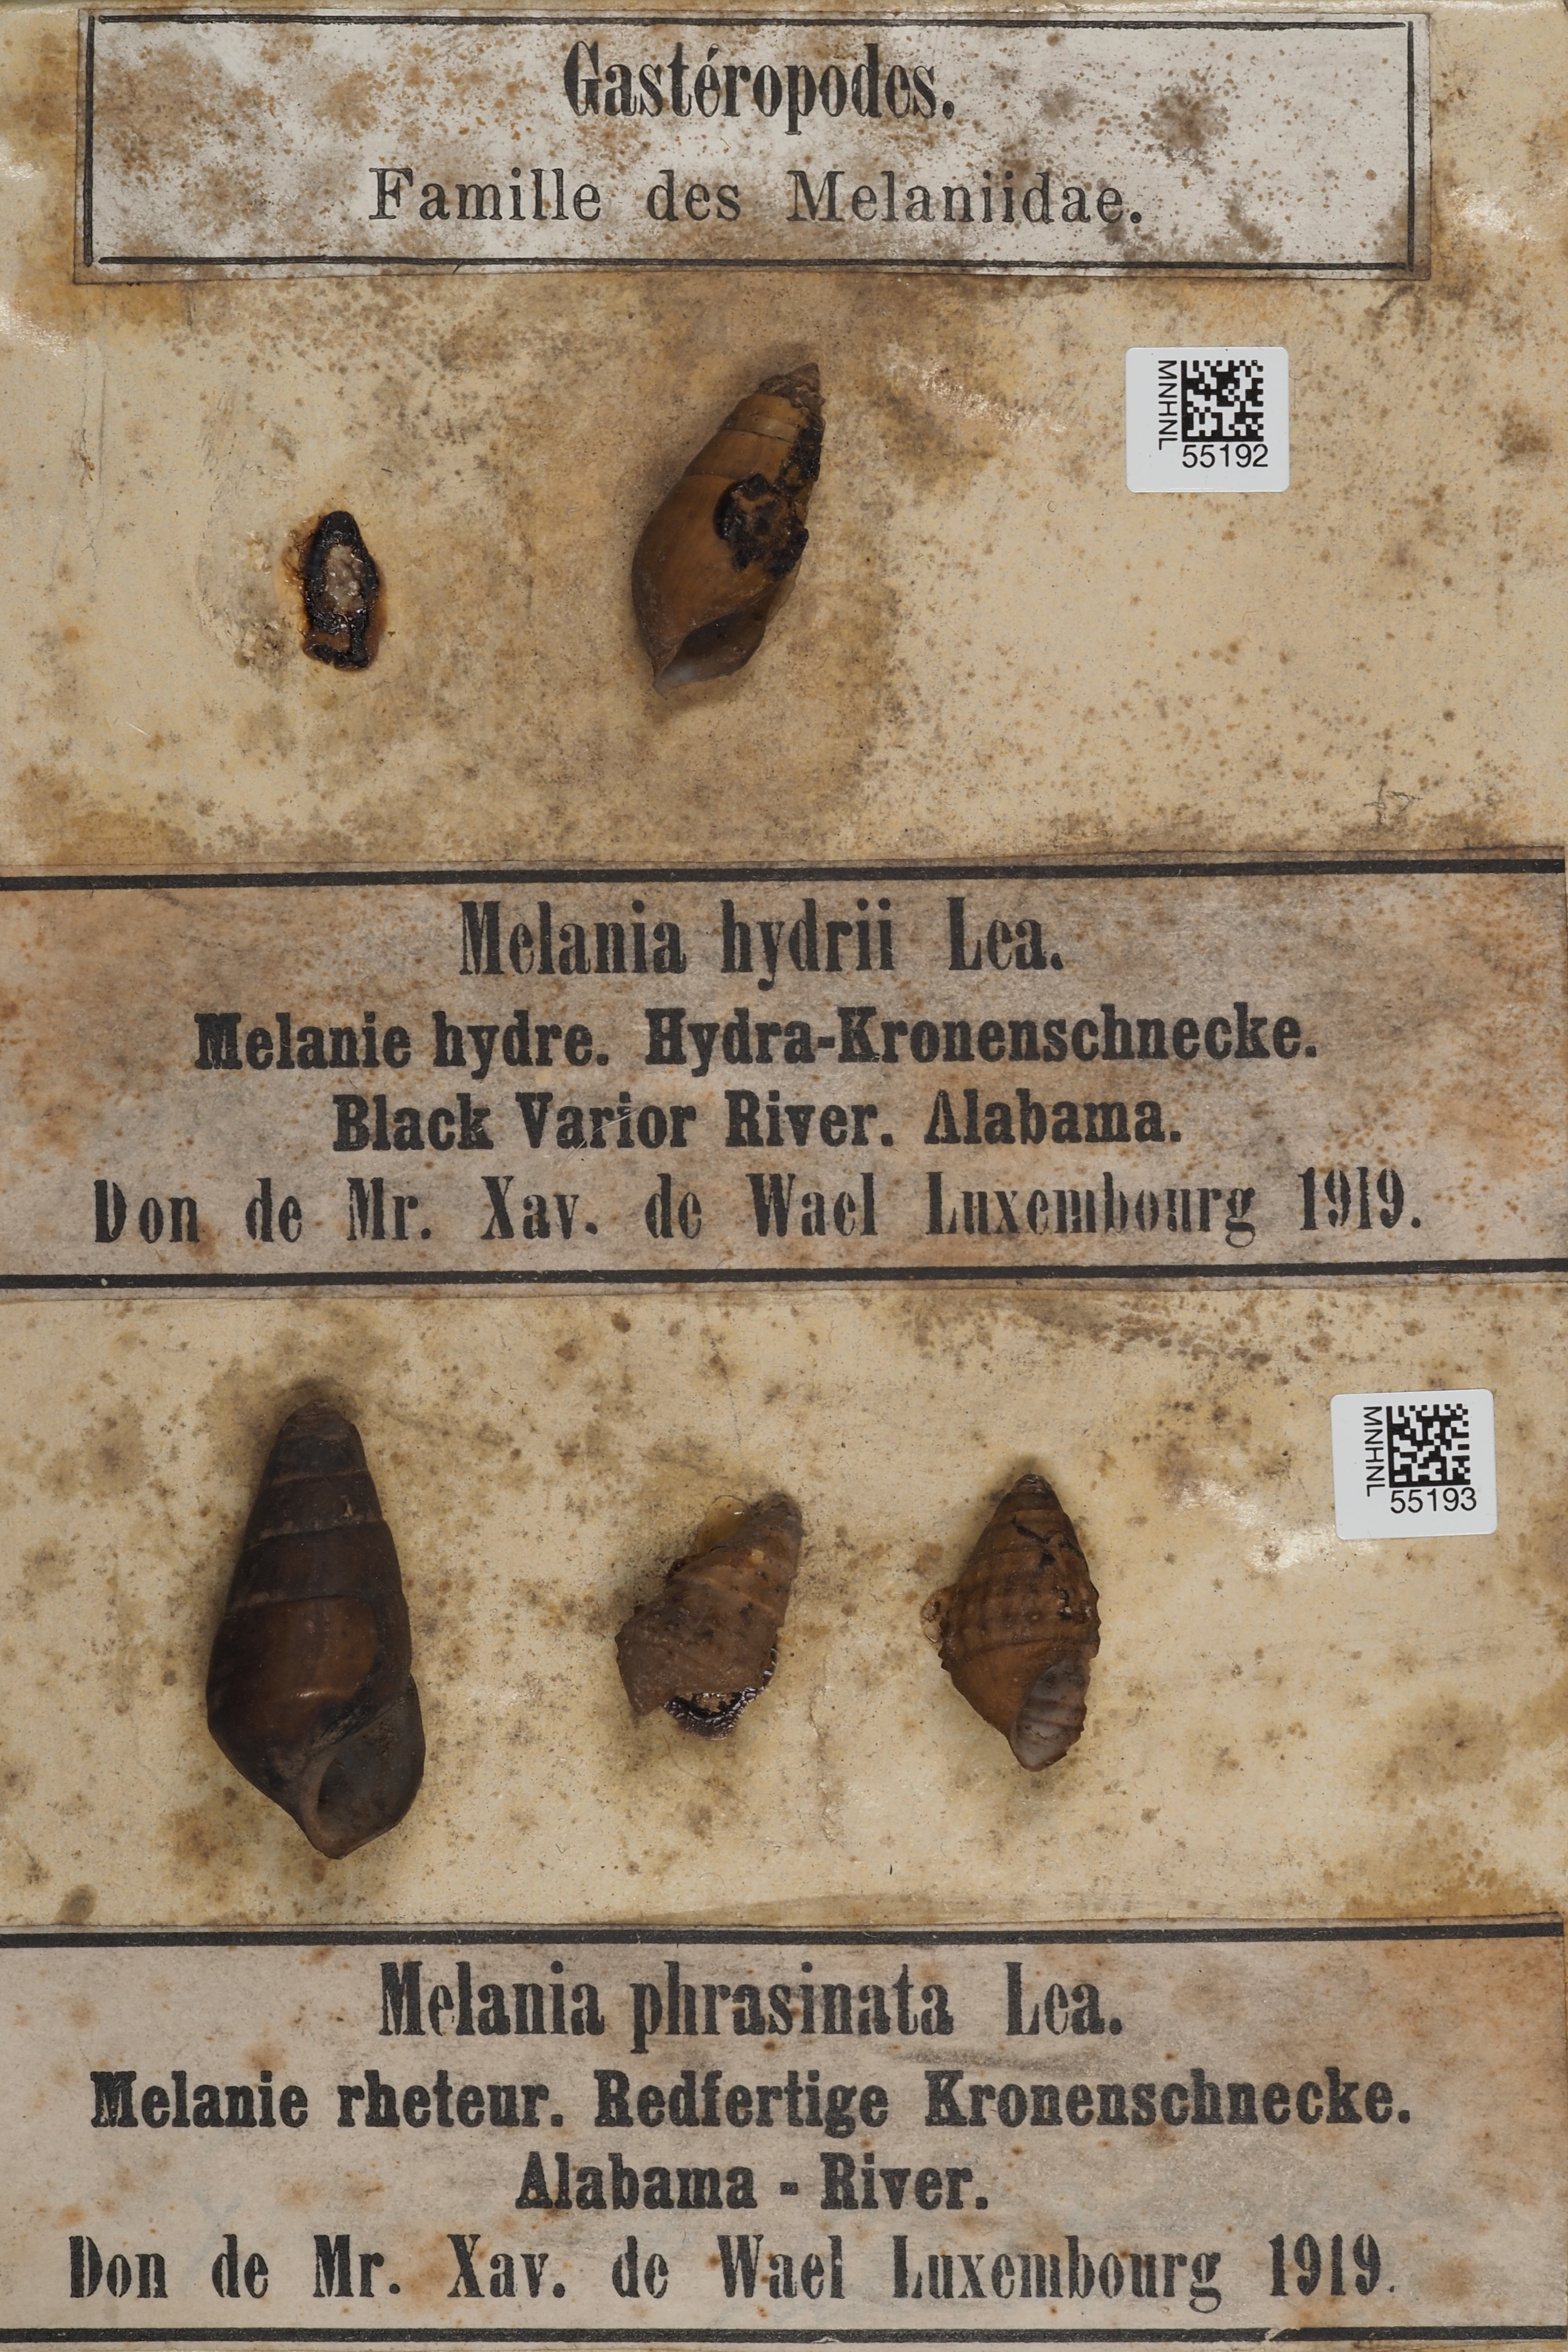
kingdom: Animalia
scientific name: Animalia
